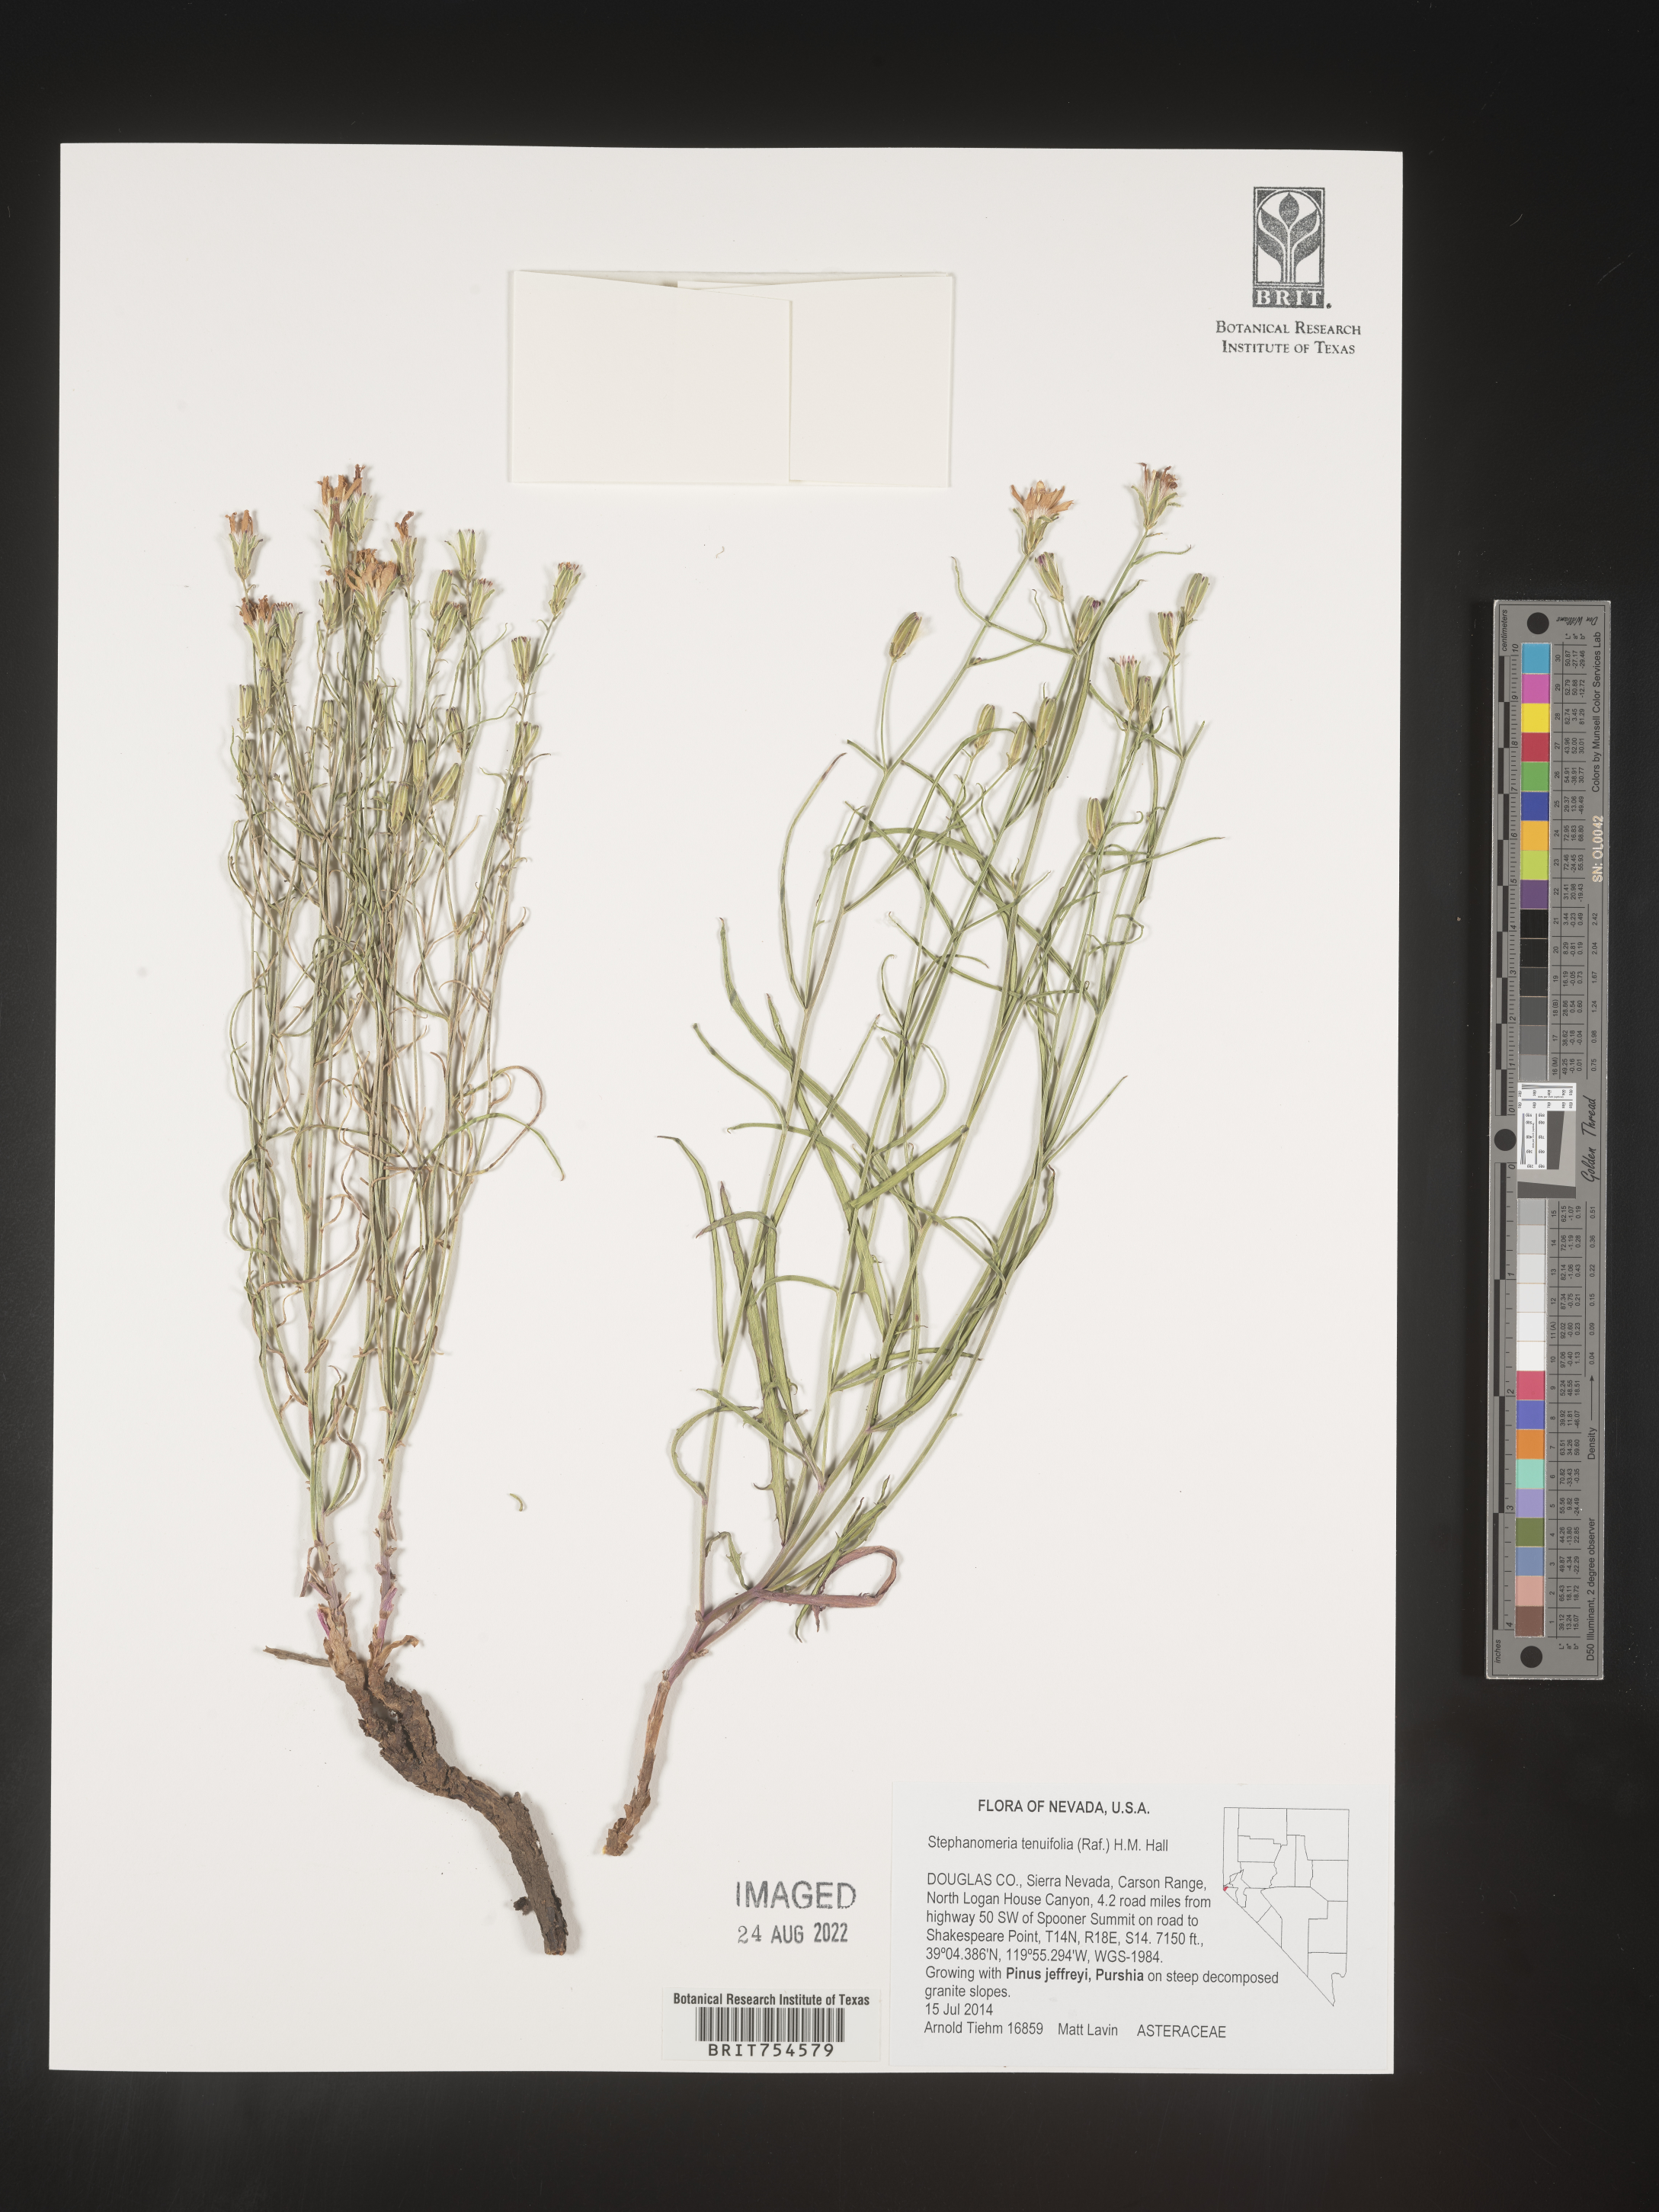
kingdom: Plantae
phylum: Tracheophyta
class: Magnoliopsida
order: Asterales
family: Asteraceae
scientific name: Asteraceae
